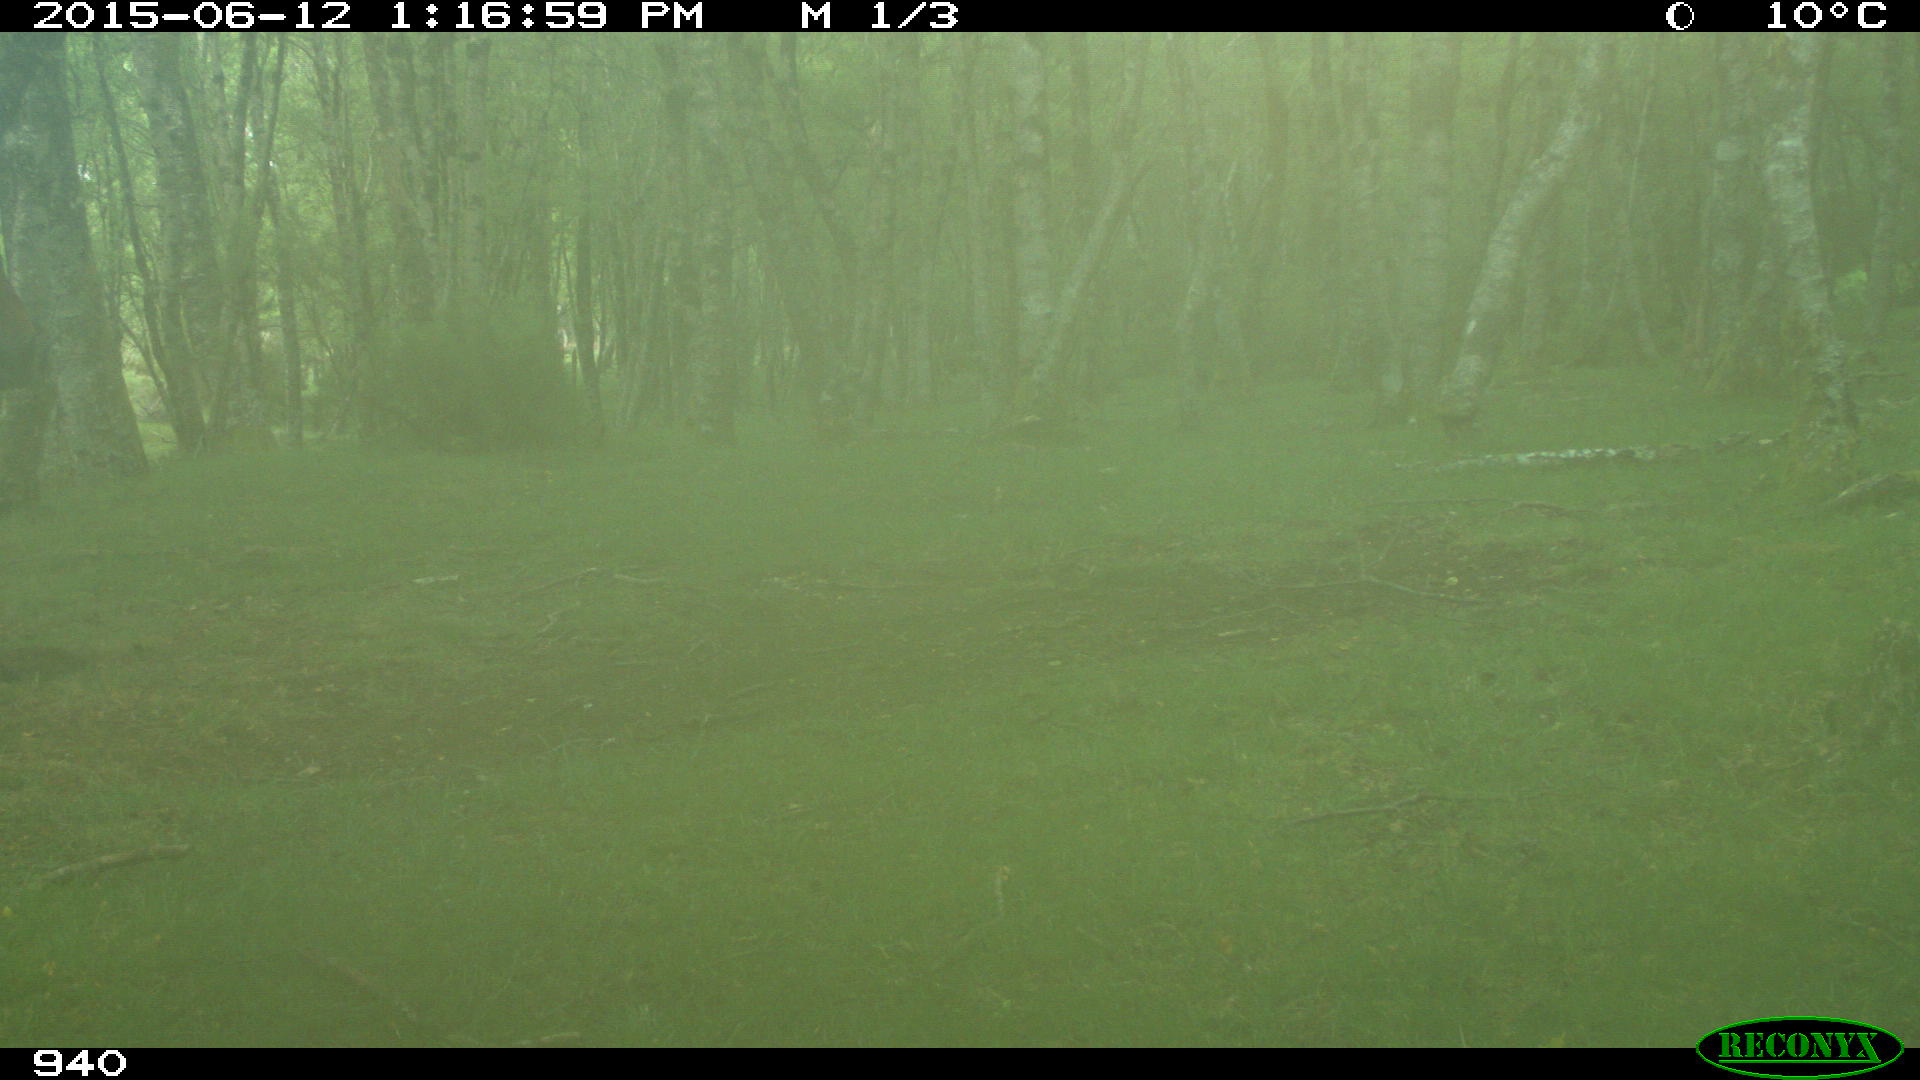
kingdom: Animalia
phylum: Chordata
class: Mammalia
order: Perissodactyla
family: Equidae
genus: Equus
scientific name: Equus caballus
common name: Horse
